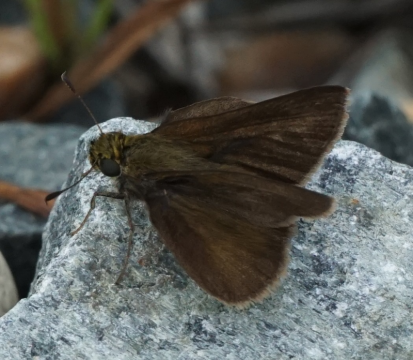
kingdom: Animalia
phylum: Arthropoda
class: Insecta
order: Lepidoptera
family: Hesperiidae
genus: Euphyes
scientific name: Euphyes vestris
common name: Dun Skipper
